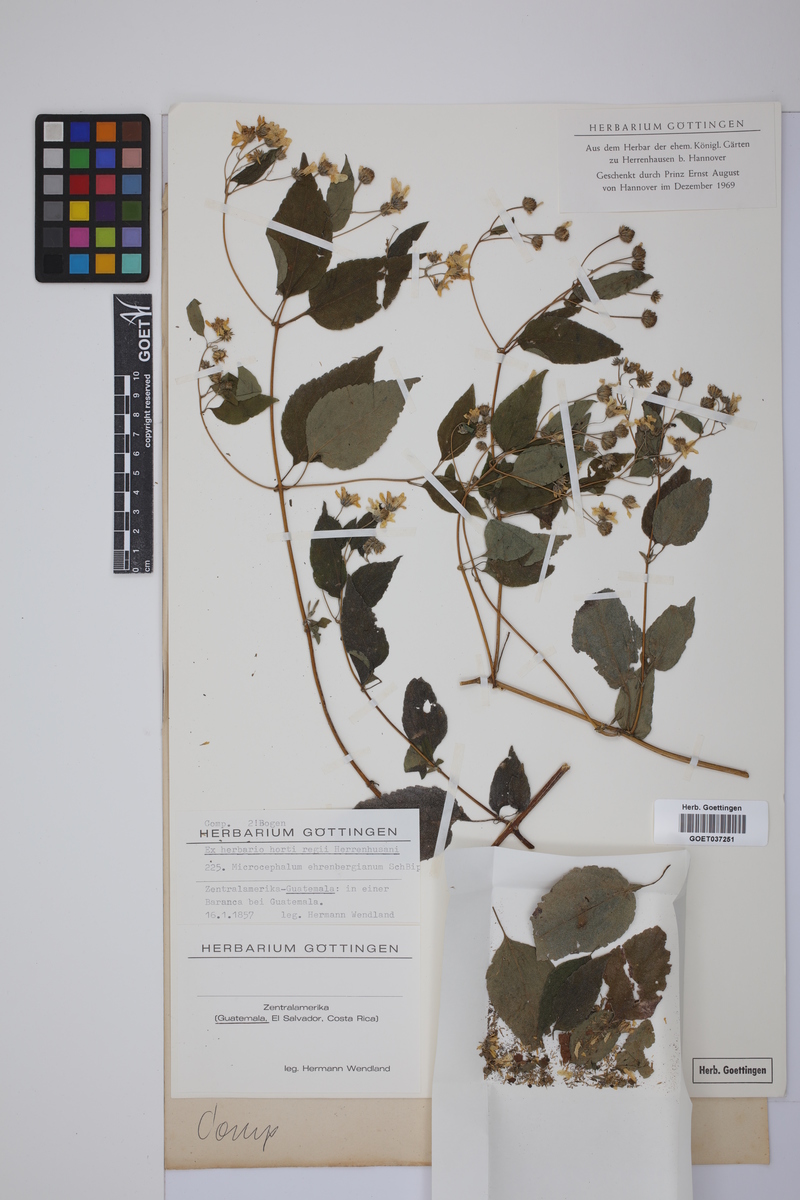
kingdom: Plantae
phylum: Tracheophyta
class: Magnoliopsida
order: Asterales
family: Asteraceae
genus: Hymenostephium
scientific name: Hymenostephium cordatum
